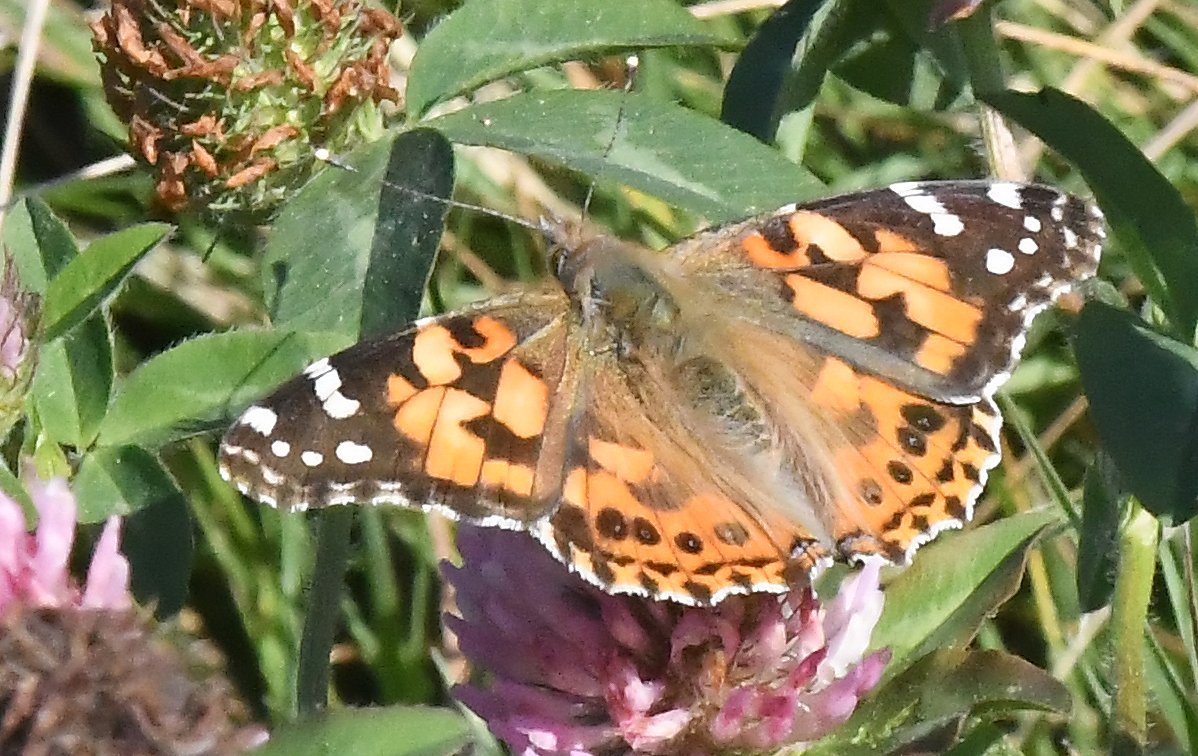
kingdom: Animalia
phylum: Arthropoda
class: Insecta
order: Lepidoptera
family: Nymphalidae
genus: Vanessa
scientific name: Vanessa cardui
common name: Painted Lady
